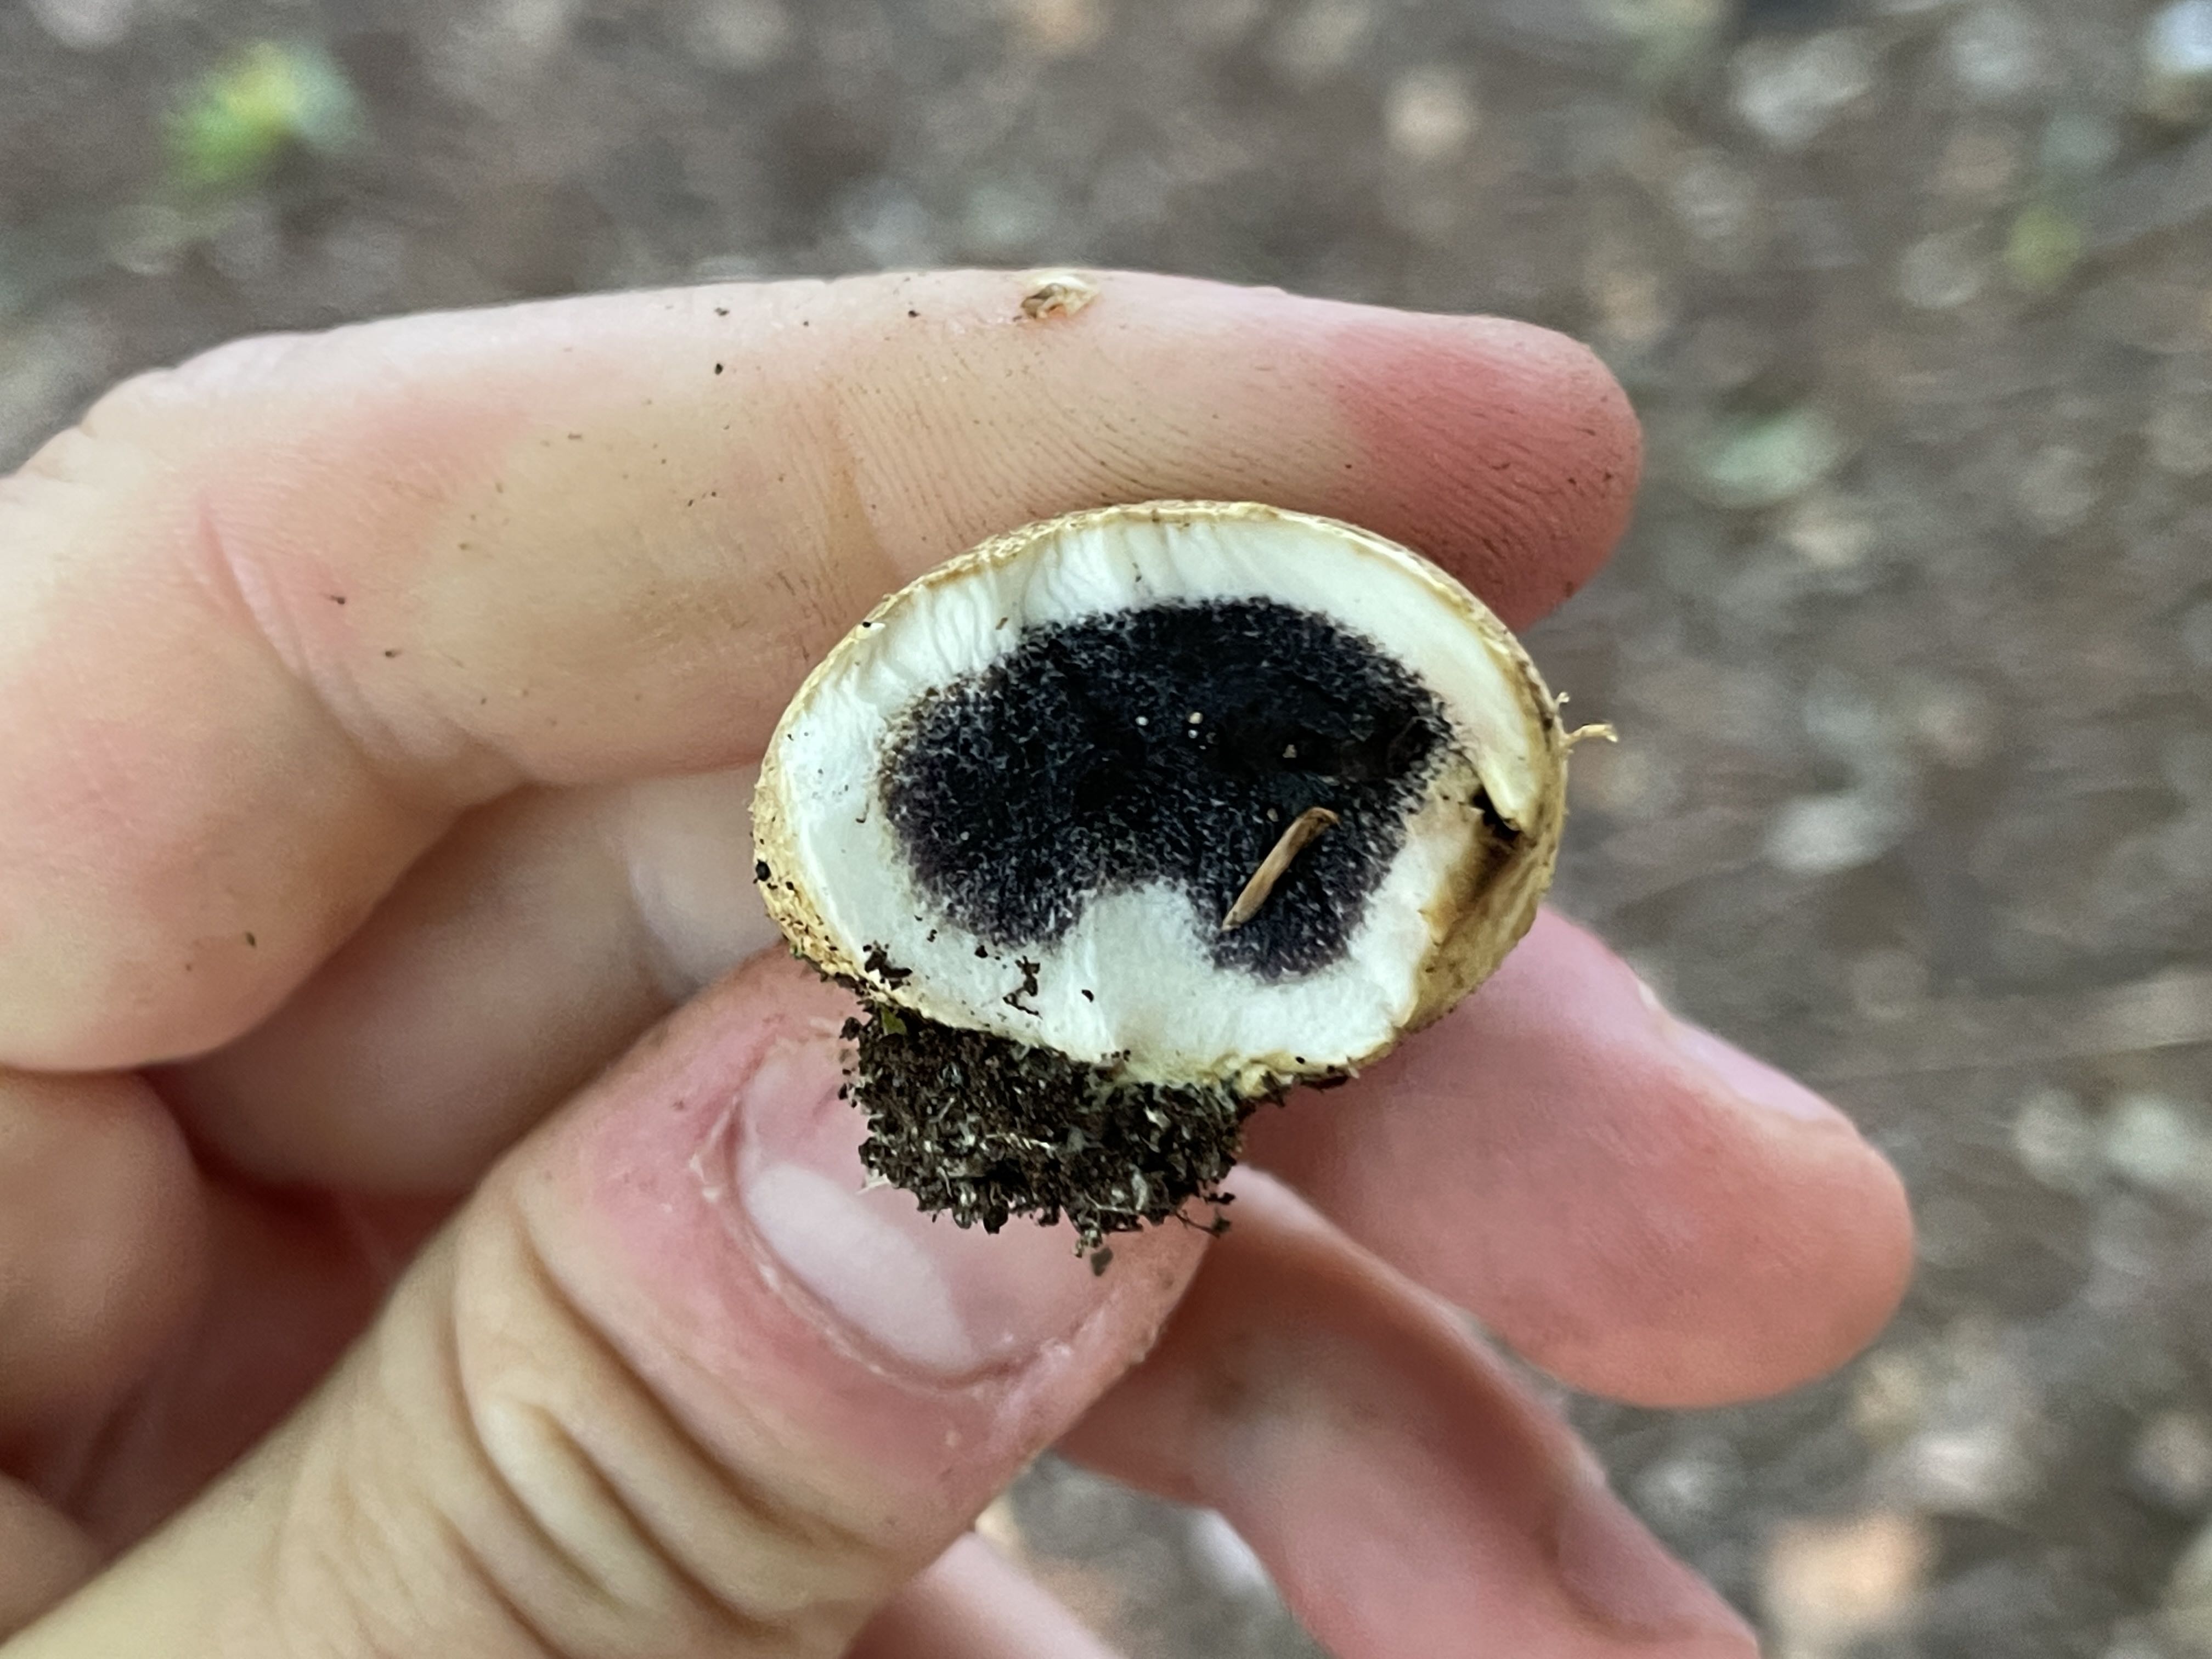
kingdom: Fungi
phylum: Basidiomycota
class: Agaricomycetes
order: Boletales
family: Sclerodermataceae
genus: Scleroderma
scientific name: Scleroderma citrinum
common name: almindelig bruskbold
